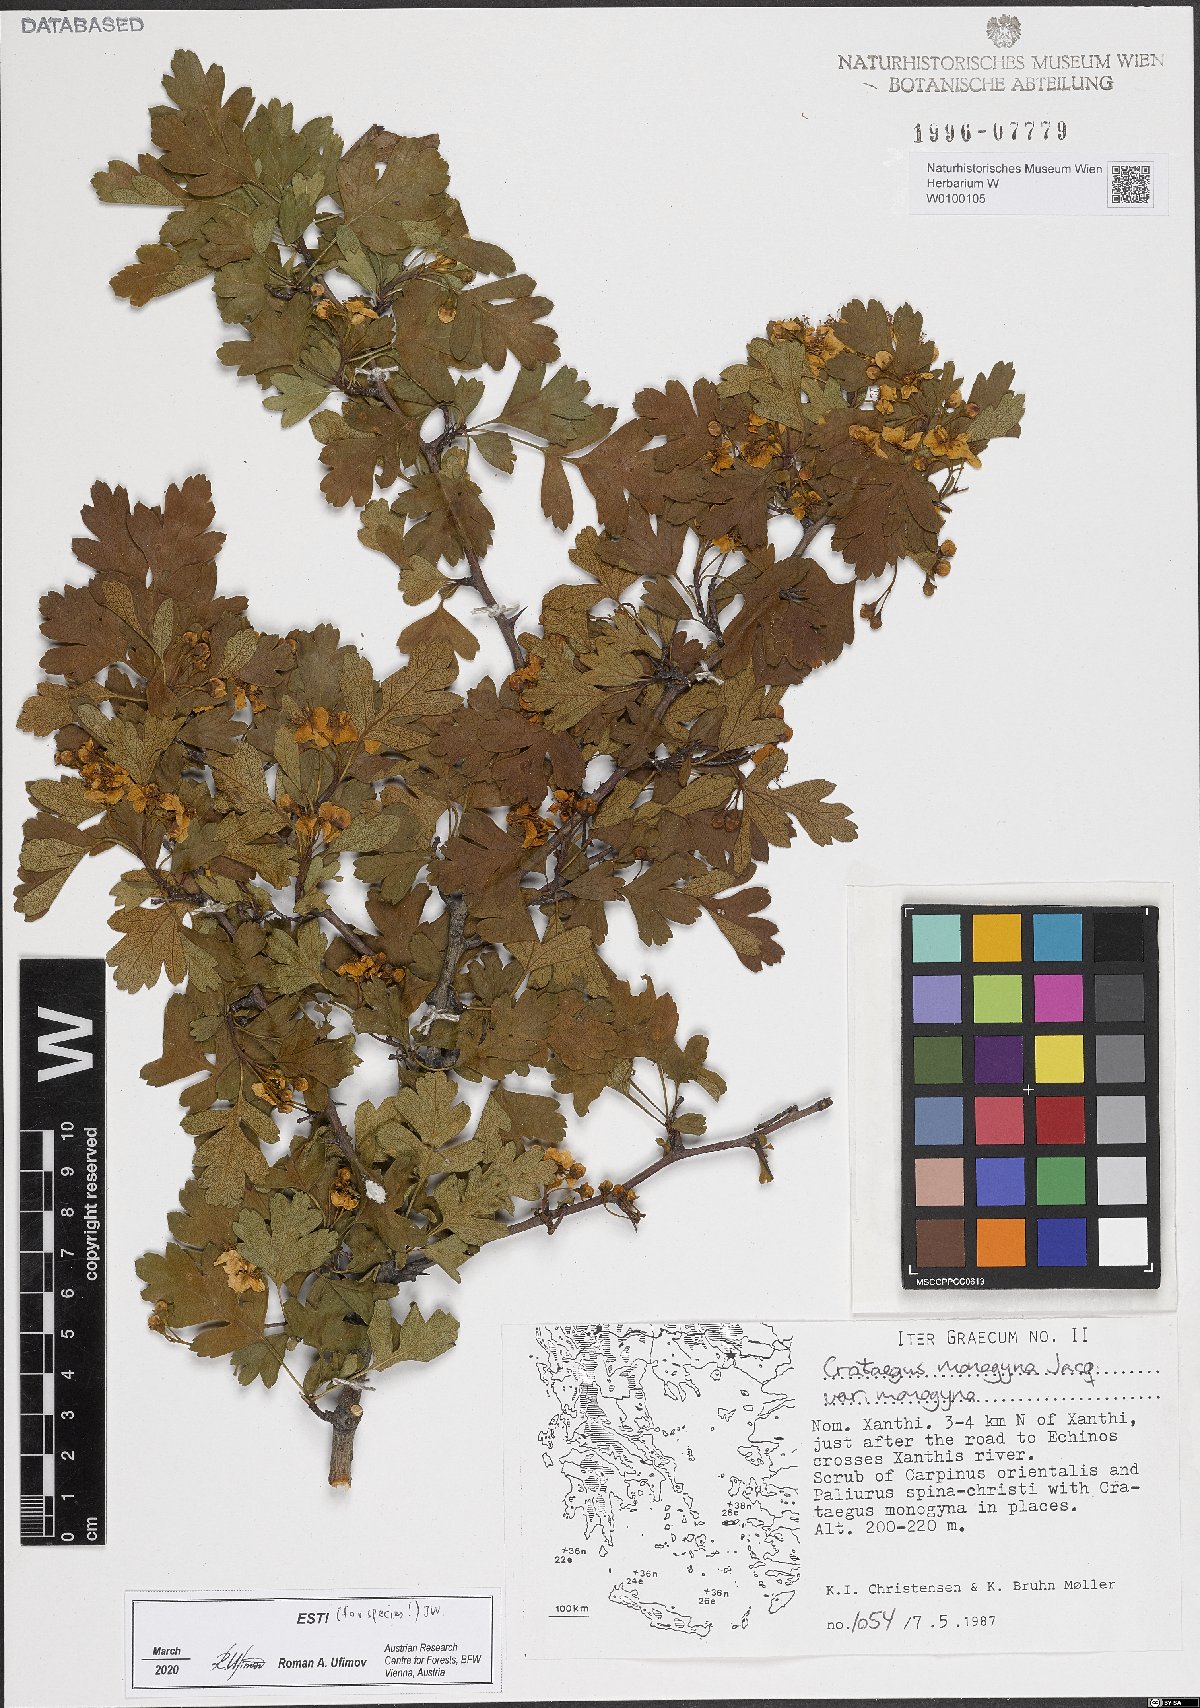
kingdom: Plantae
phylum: Tracheophyta
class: Magnoliopsida
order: Rosales
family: Rosaceae
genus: Crataegus
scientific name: Crataegus monogyna
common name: Hawthorn
